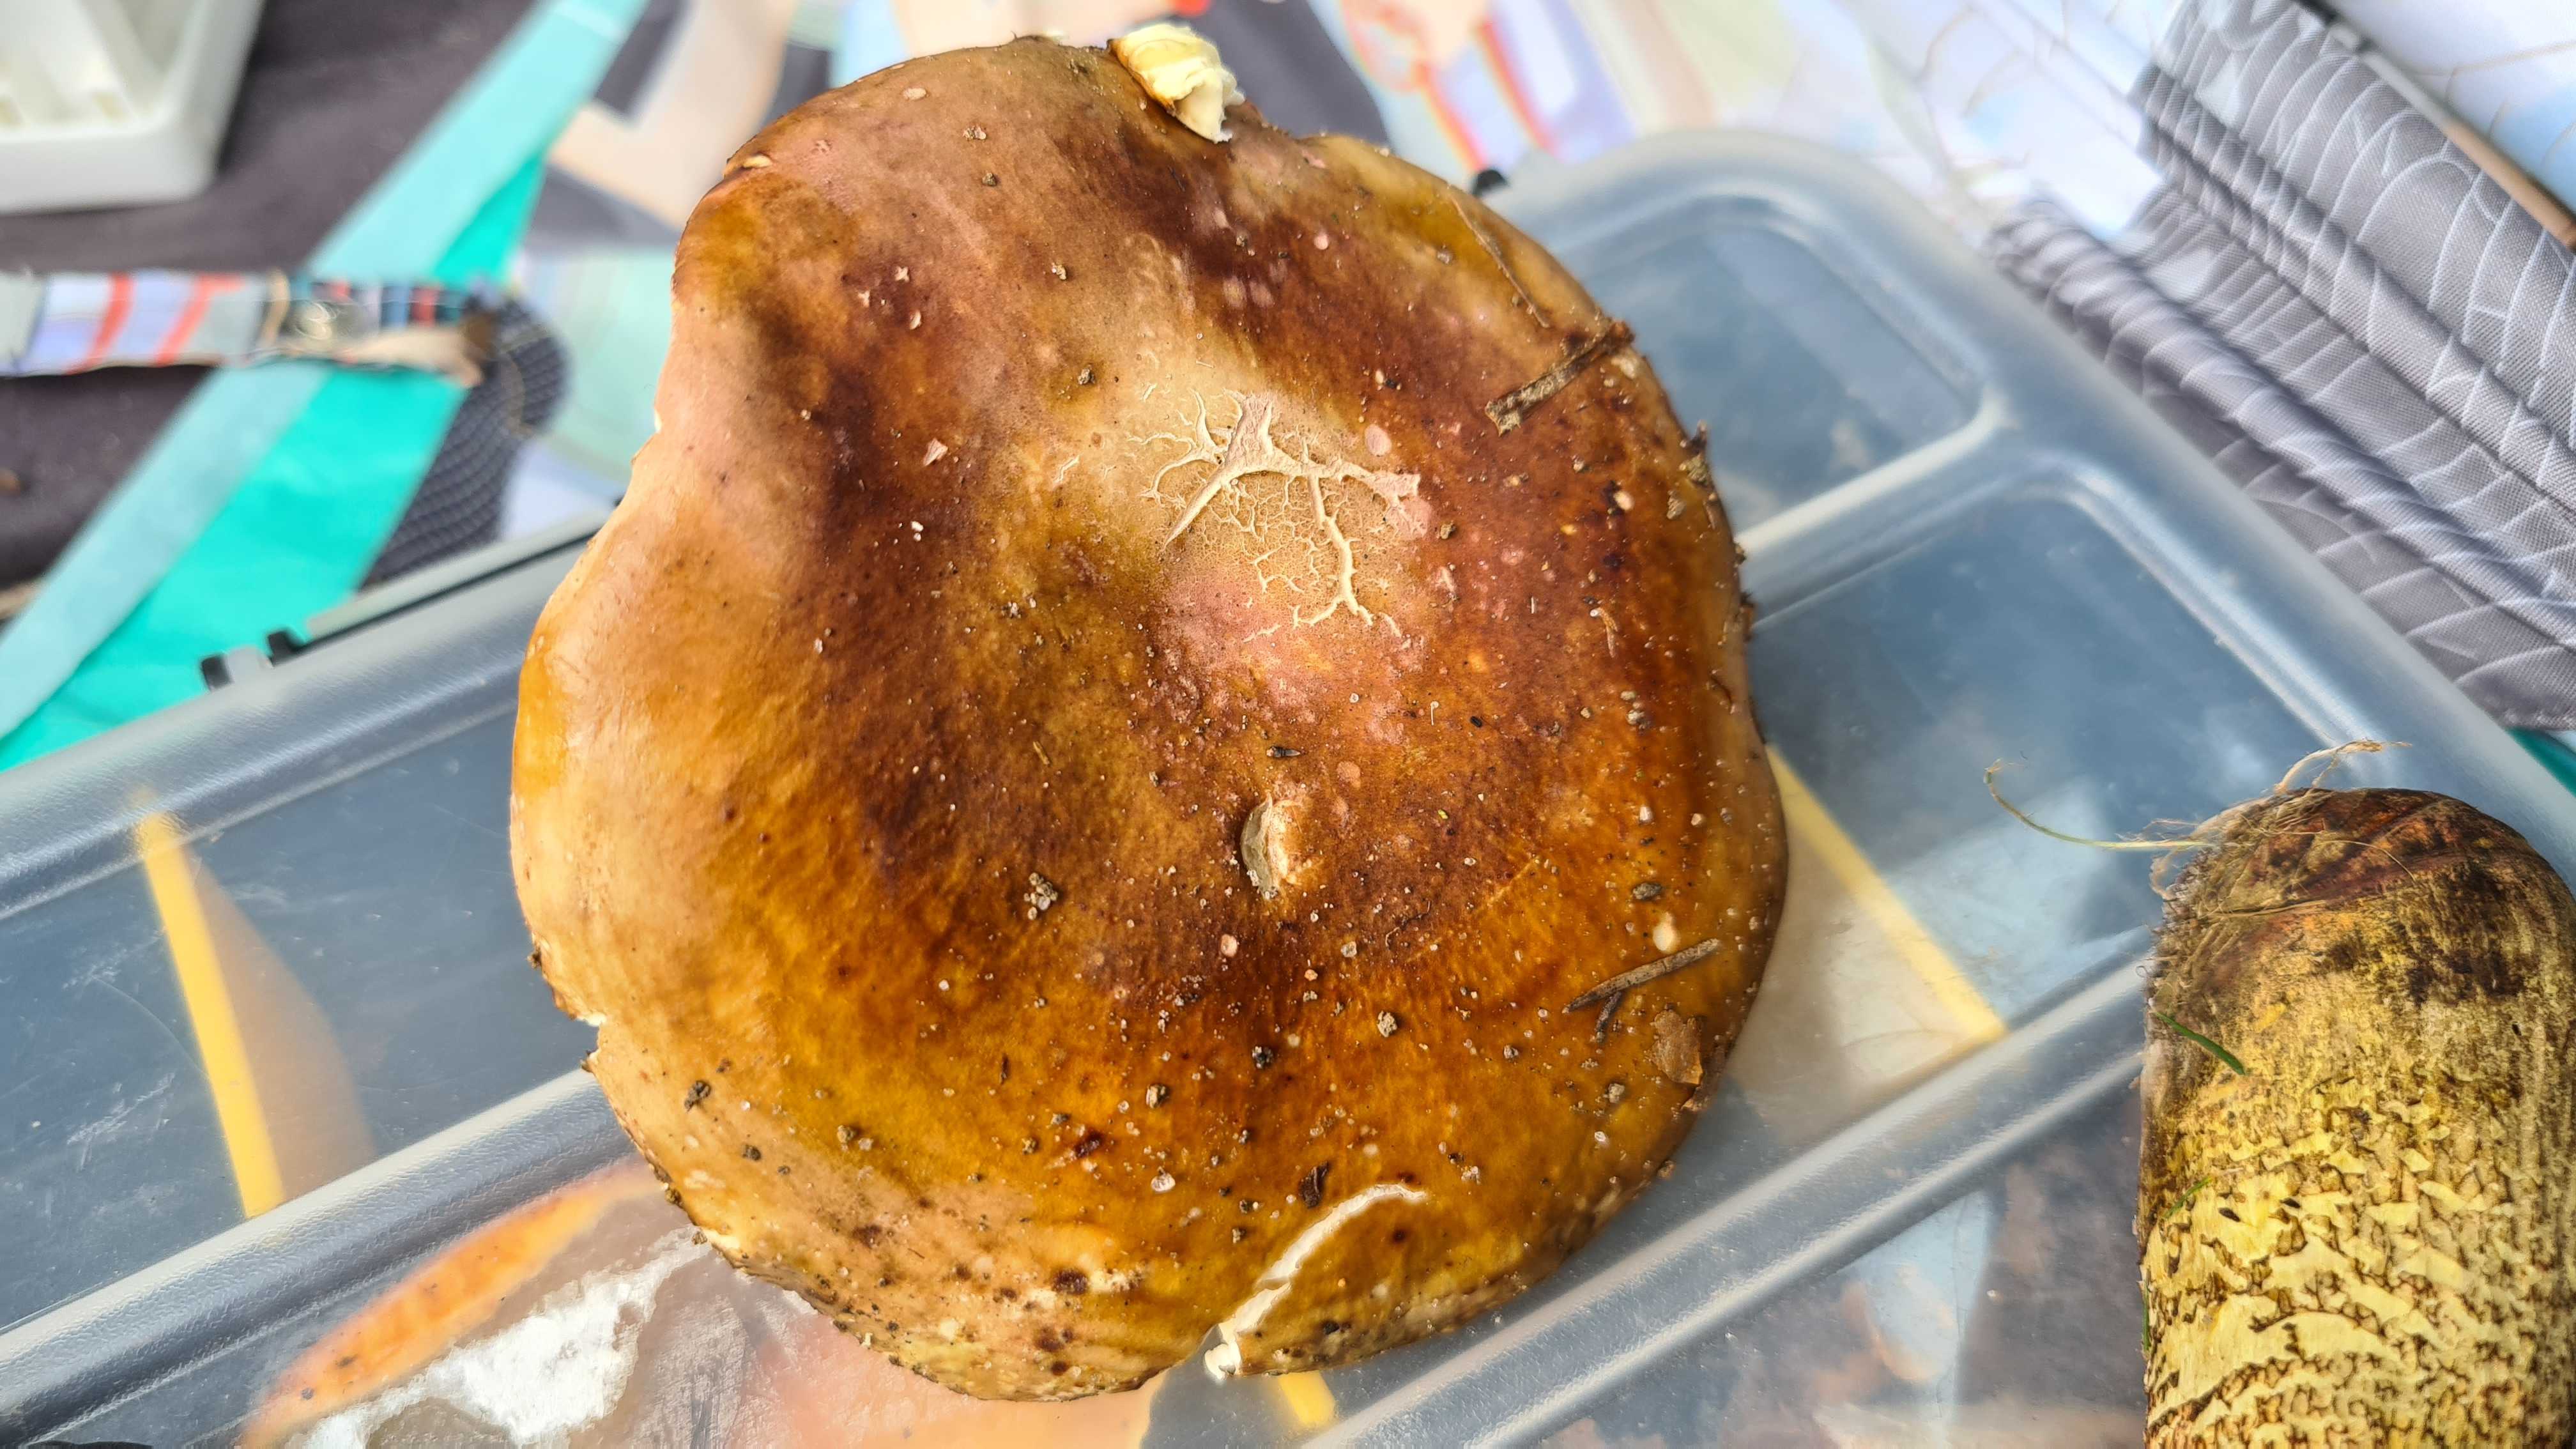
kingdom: Fungi
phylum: Basidiomycota
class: Agaricomycetes
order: Russulales
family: Russulaceae
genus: Russula
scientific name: Russula olivacea
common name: stor skørhat
